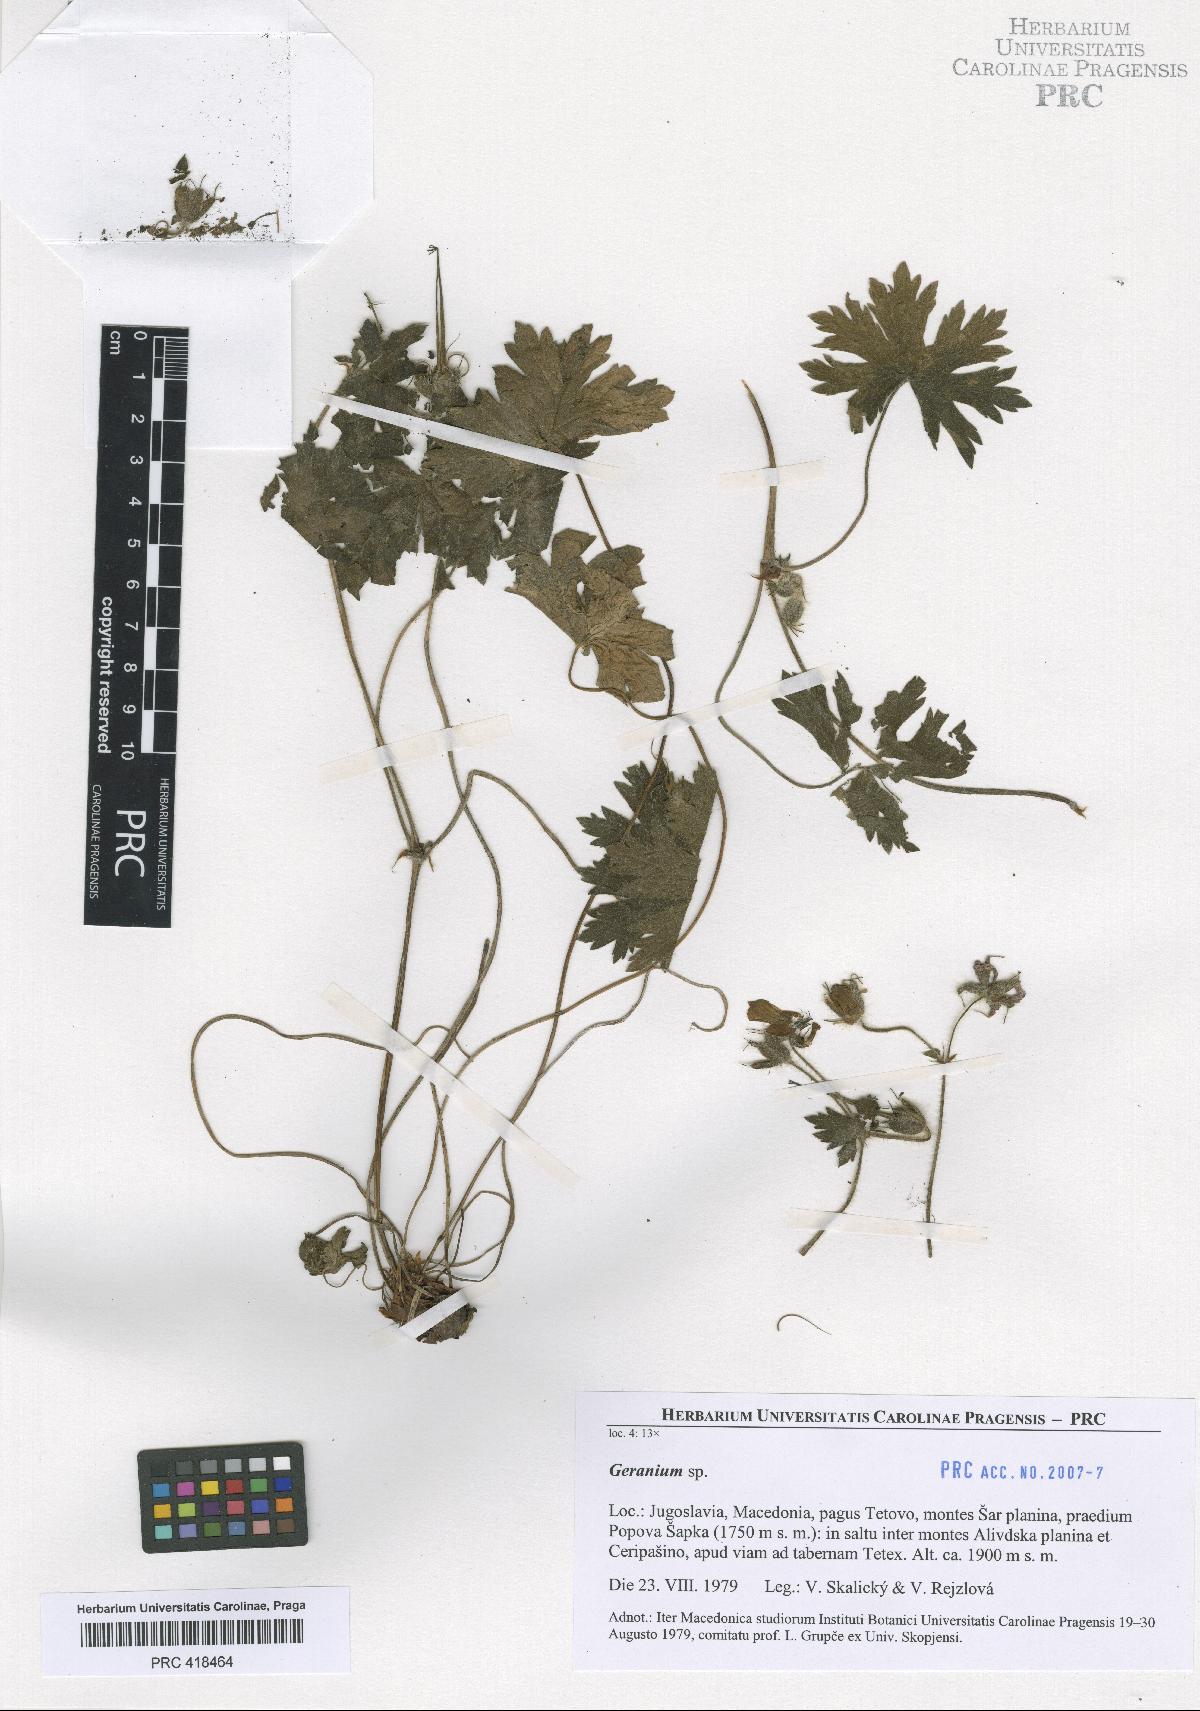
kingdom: Plantae
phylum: Tracheophyta
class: Magnoliopsida
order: Geraniales
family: Geraniaceae
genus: Geranium
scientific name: Geranium aristatum
